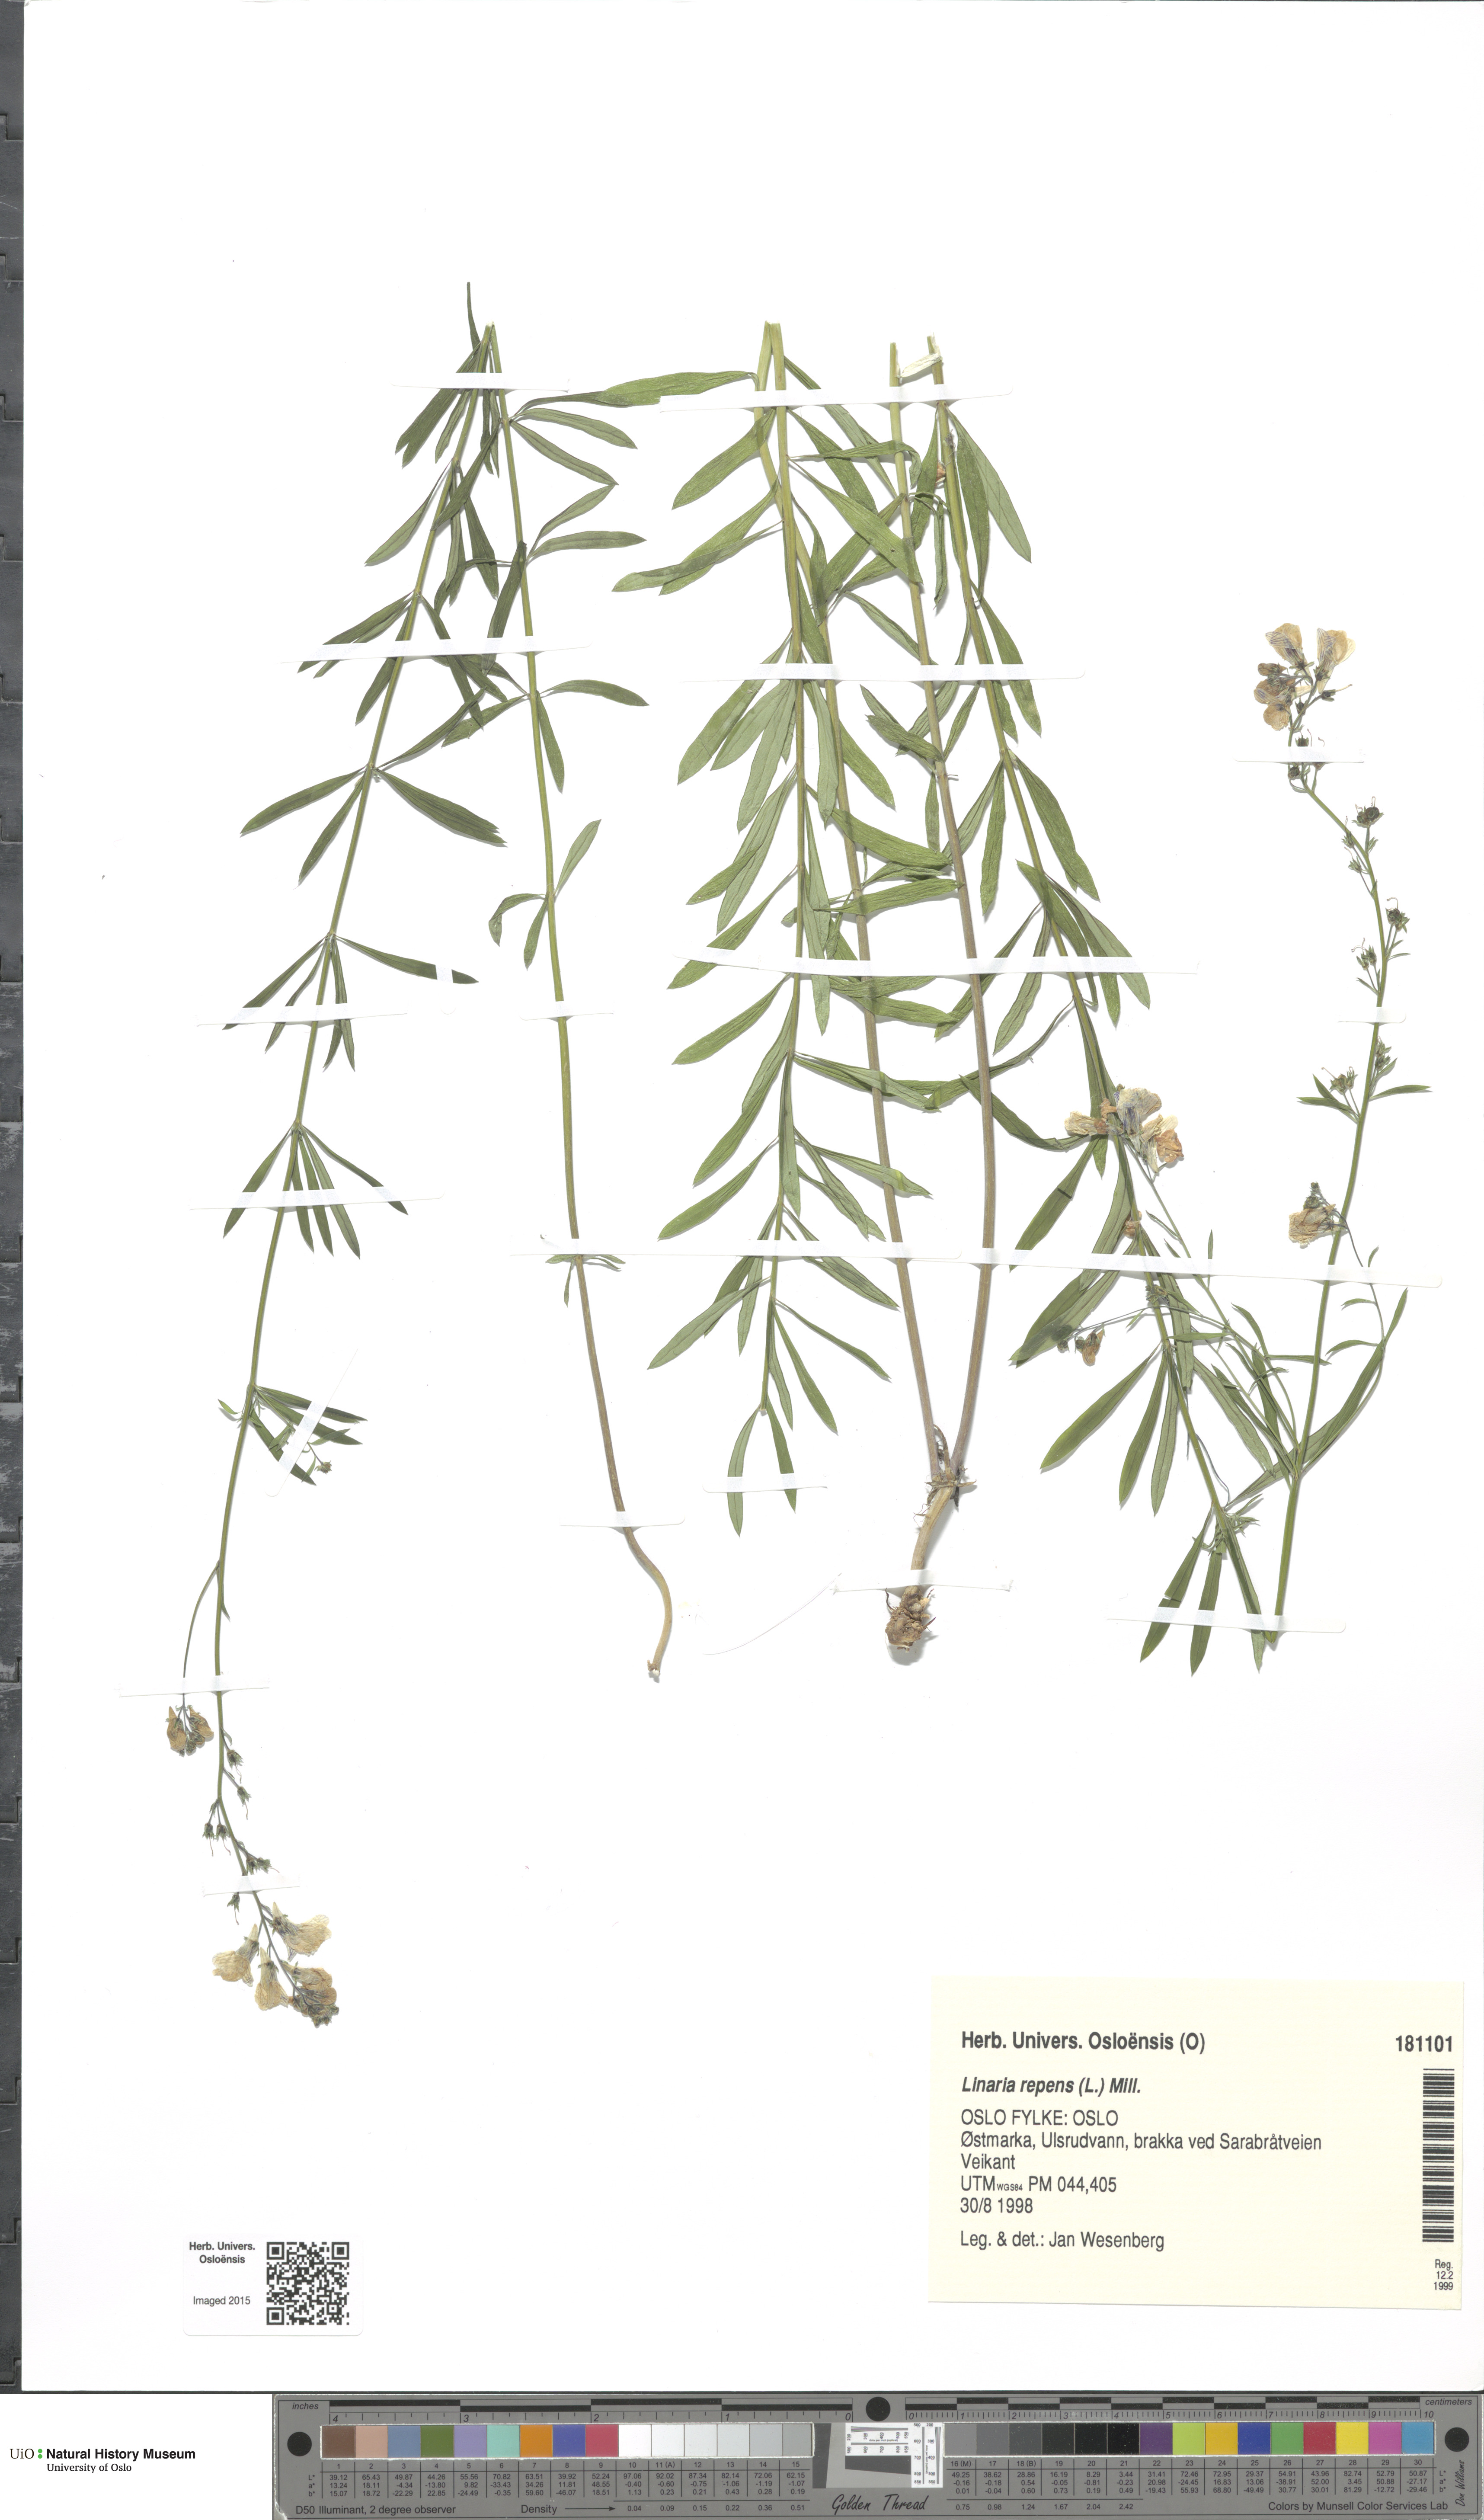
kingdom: Plantae
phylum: Tracheophyta
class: Magnoliopsida
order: Lamiales
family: Plantaginaceae
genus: Linaria
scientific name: Linaria repens
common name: Pale toadflax
